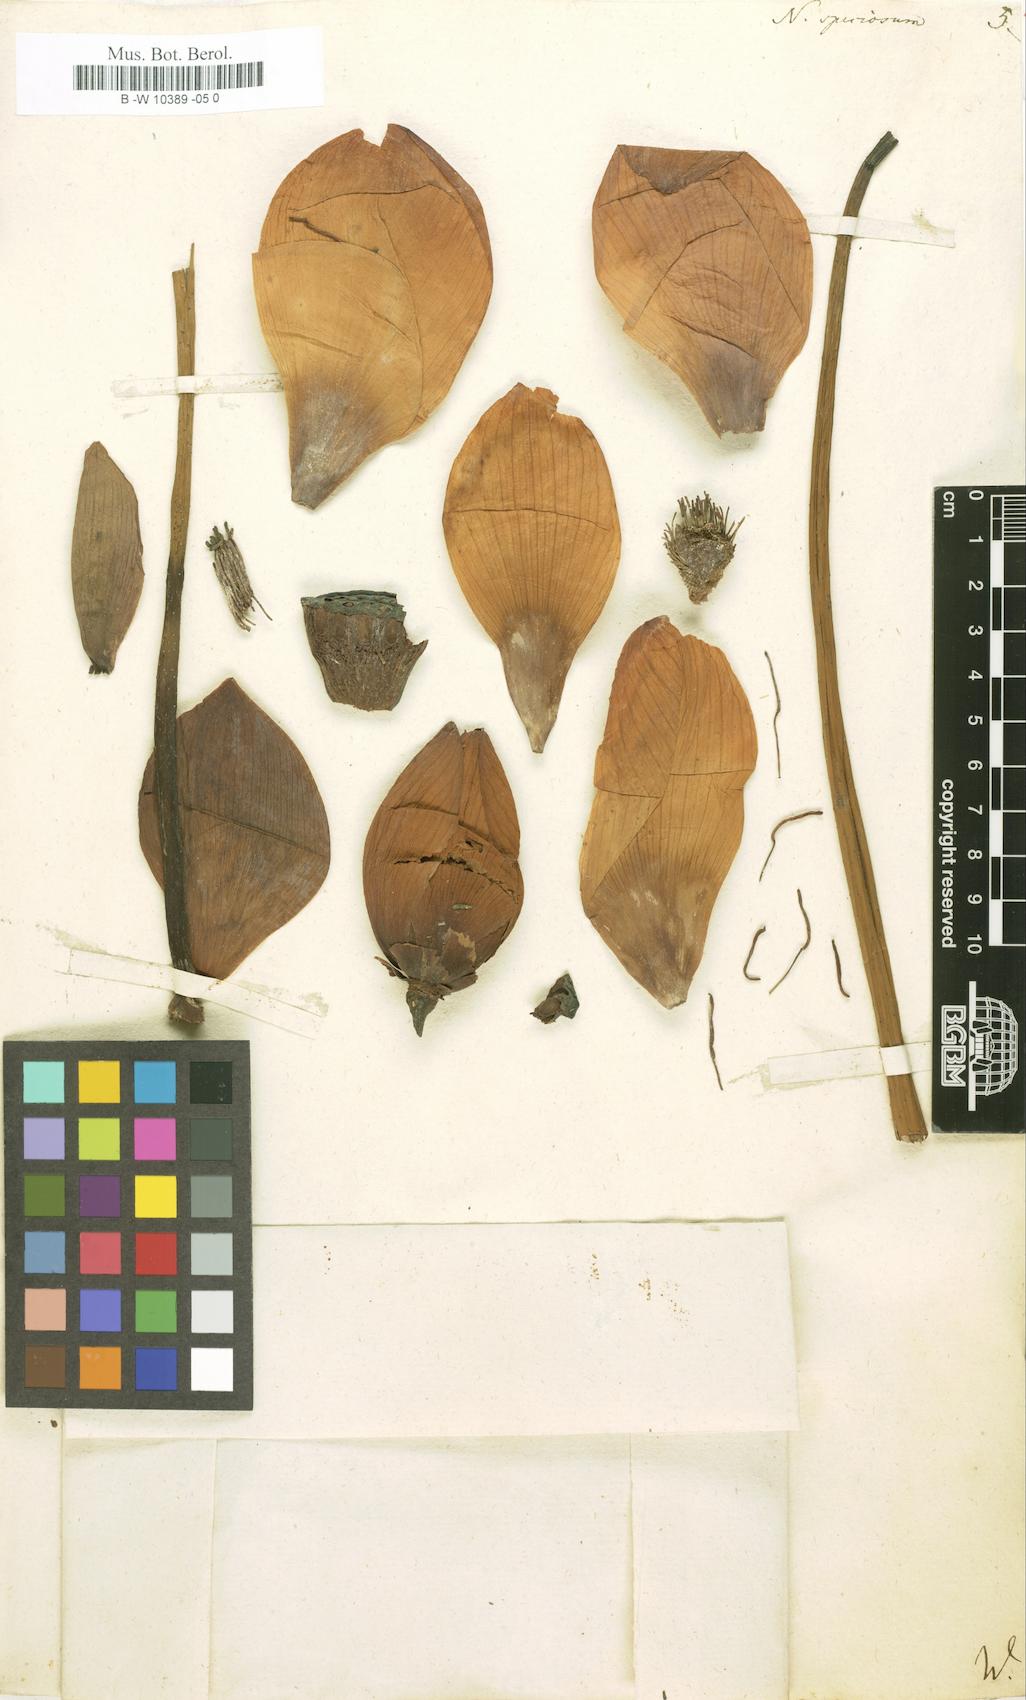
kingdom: Plantae
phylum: Tracheophyta
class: Magnoliopsida
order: Proteales
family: Nelumbonaceae
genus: Nelumbo
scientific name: Nelumbo nucifera
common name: Sacred lotus
